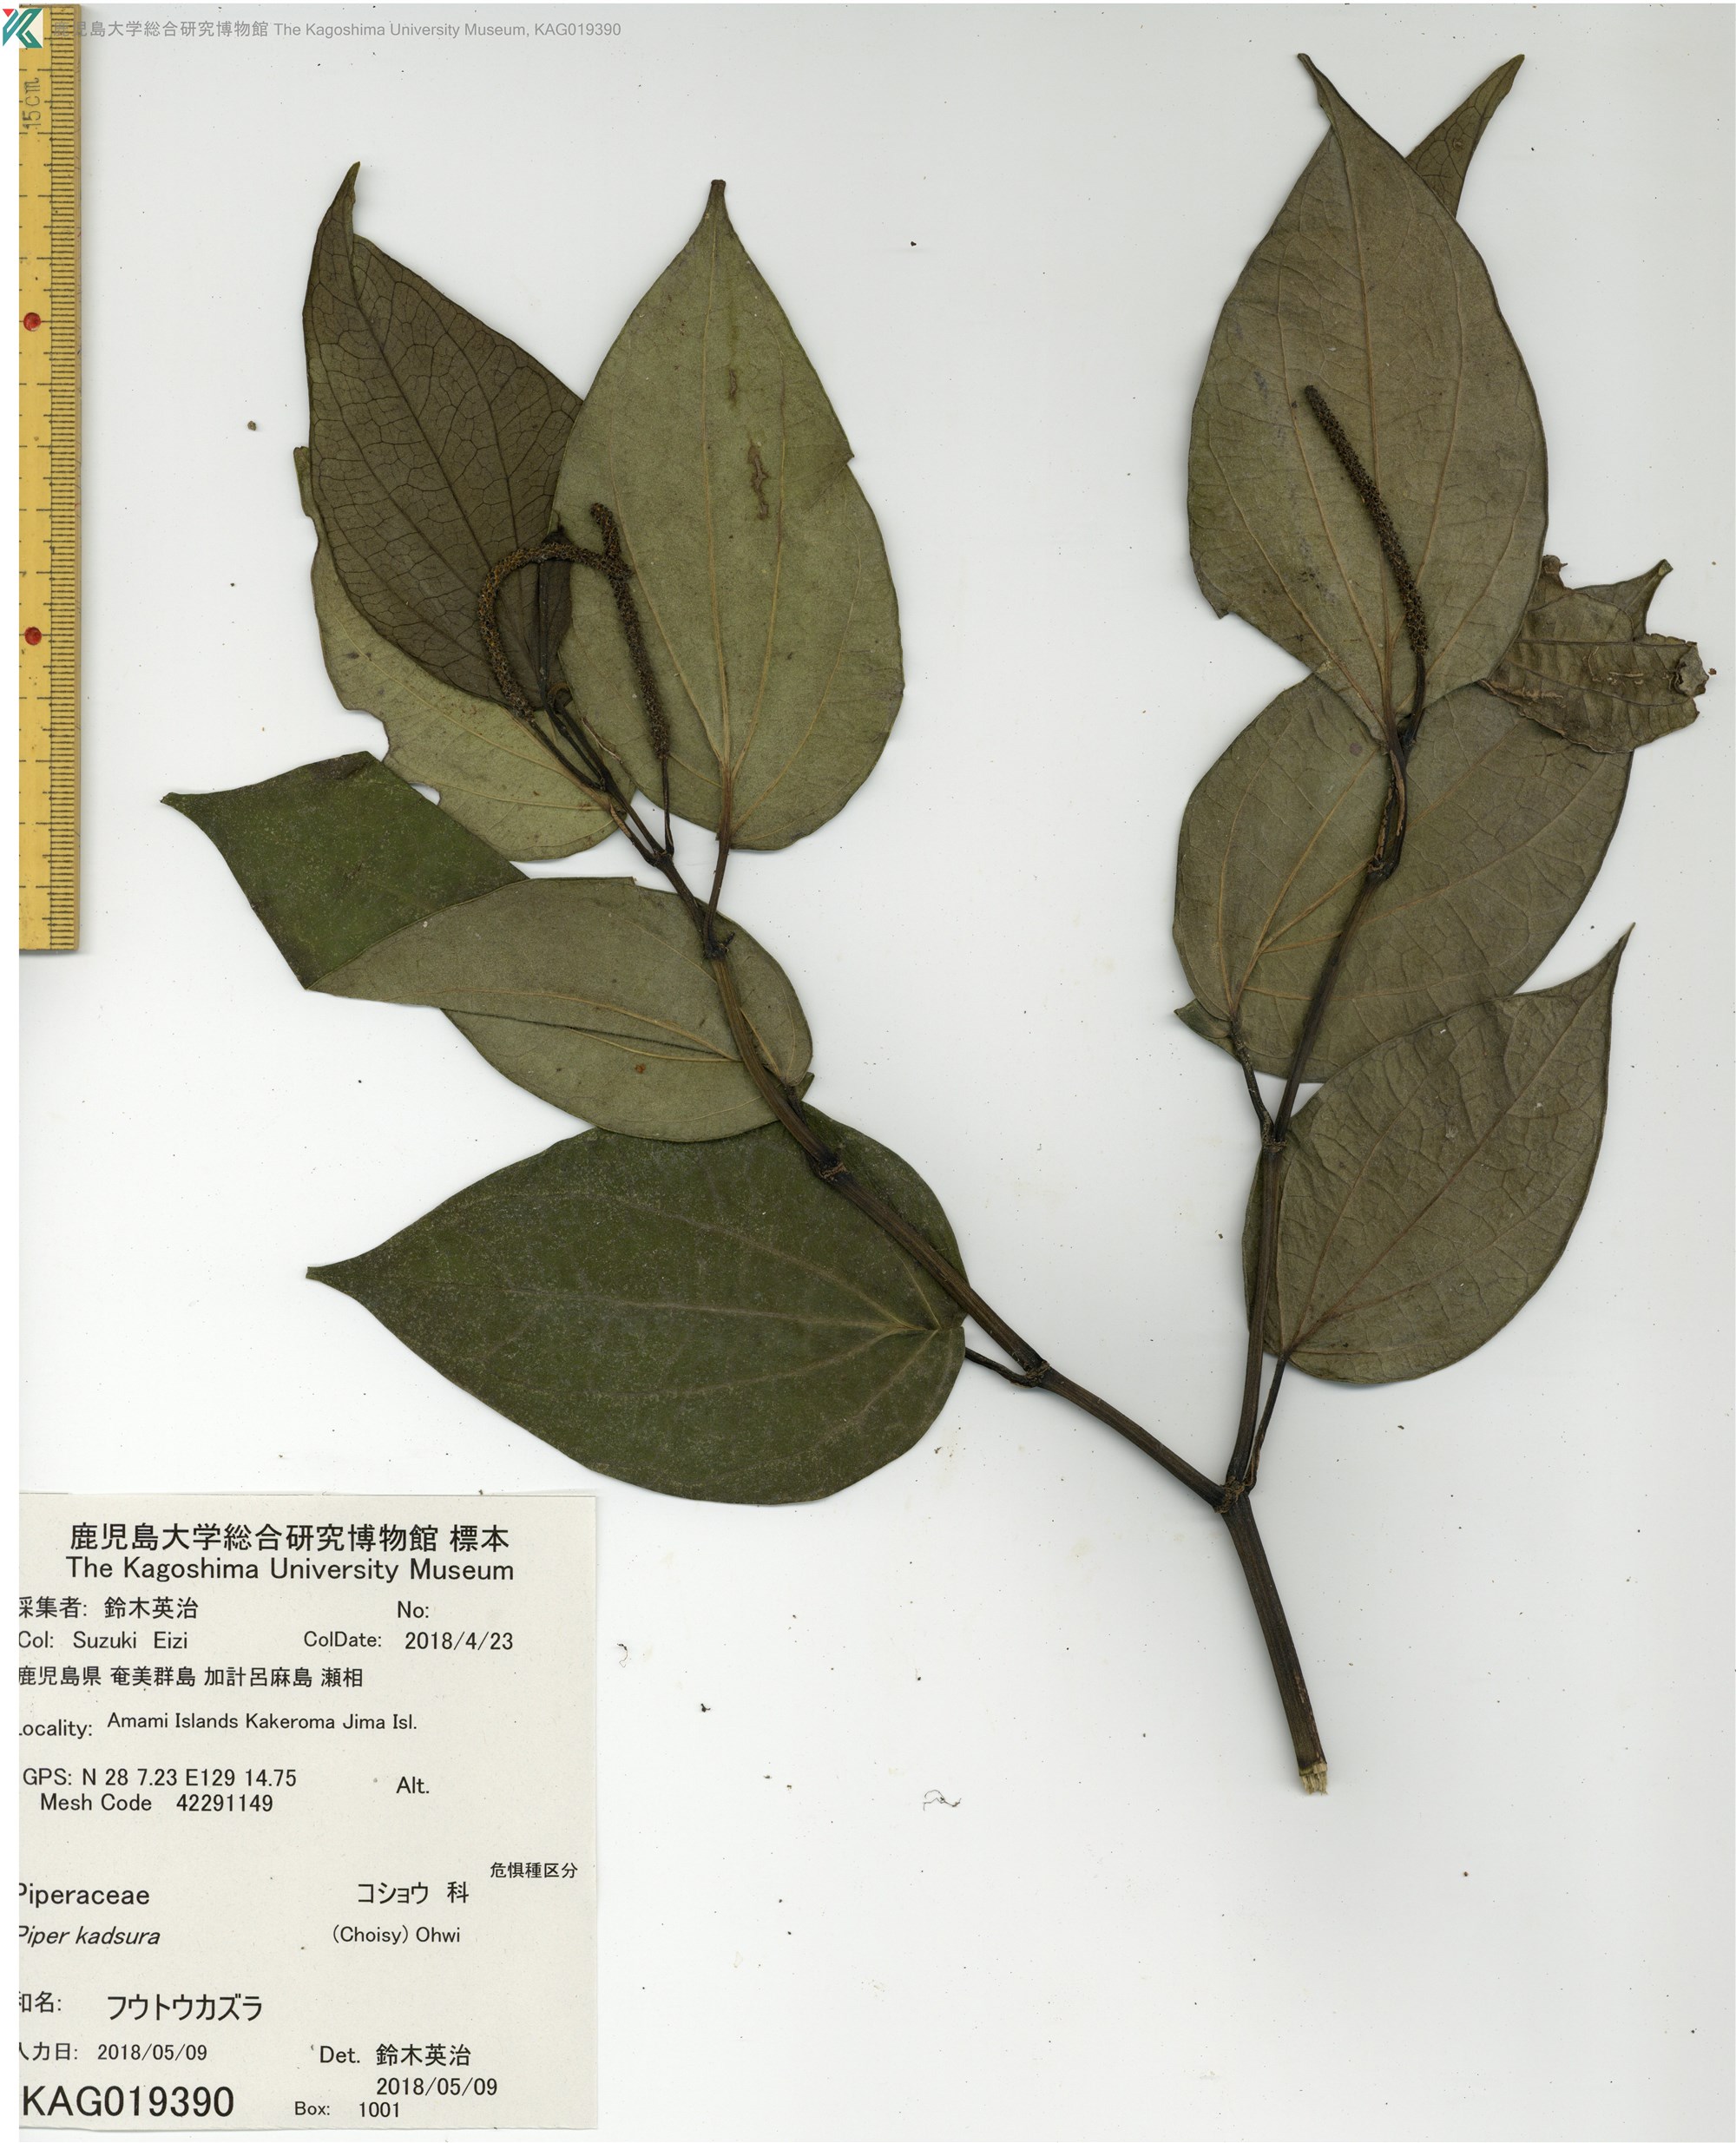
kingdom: Plantae
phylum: Tracheophyta
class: Magnoliopsida
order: Piperales
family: Piperaceae
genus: Piper
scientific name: Piper kadsura
